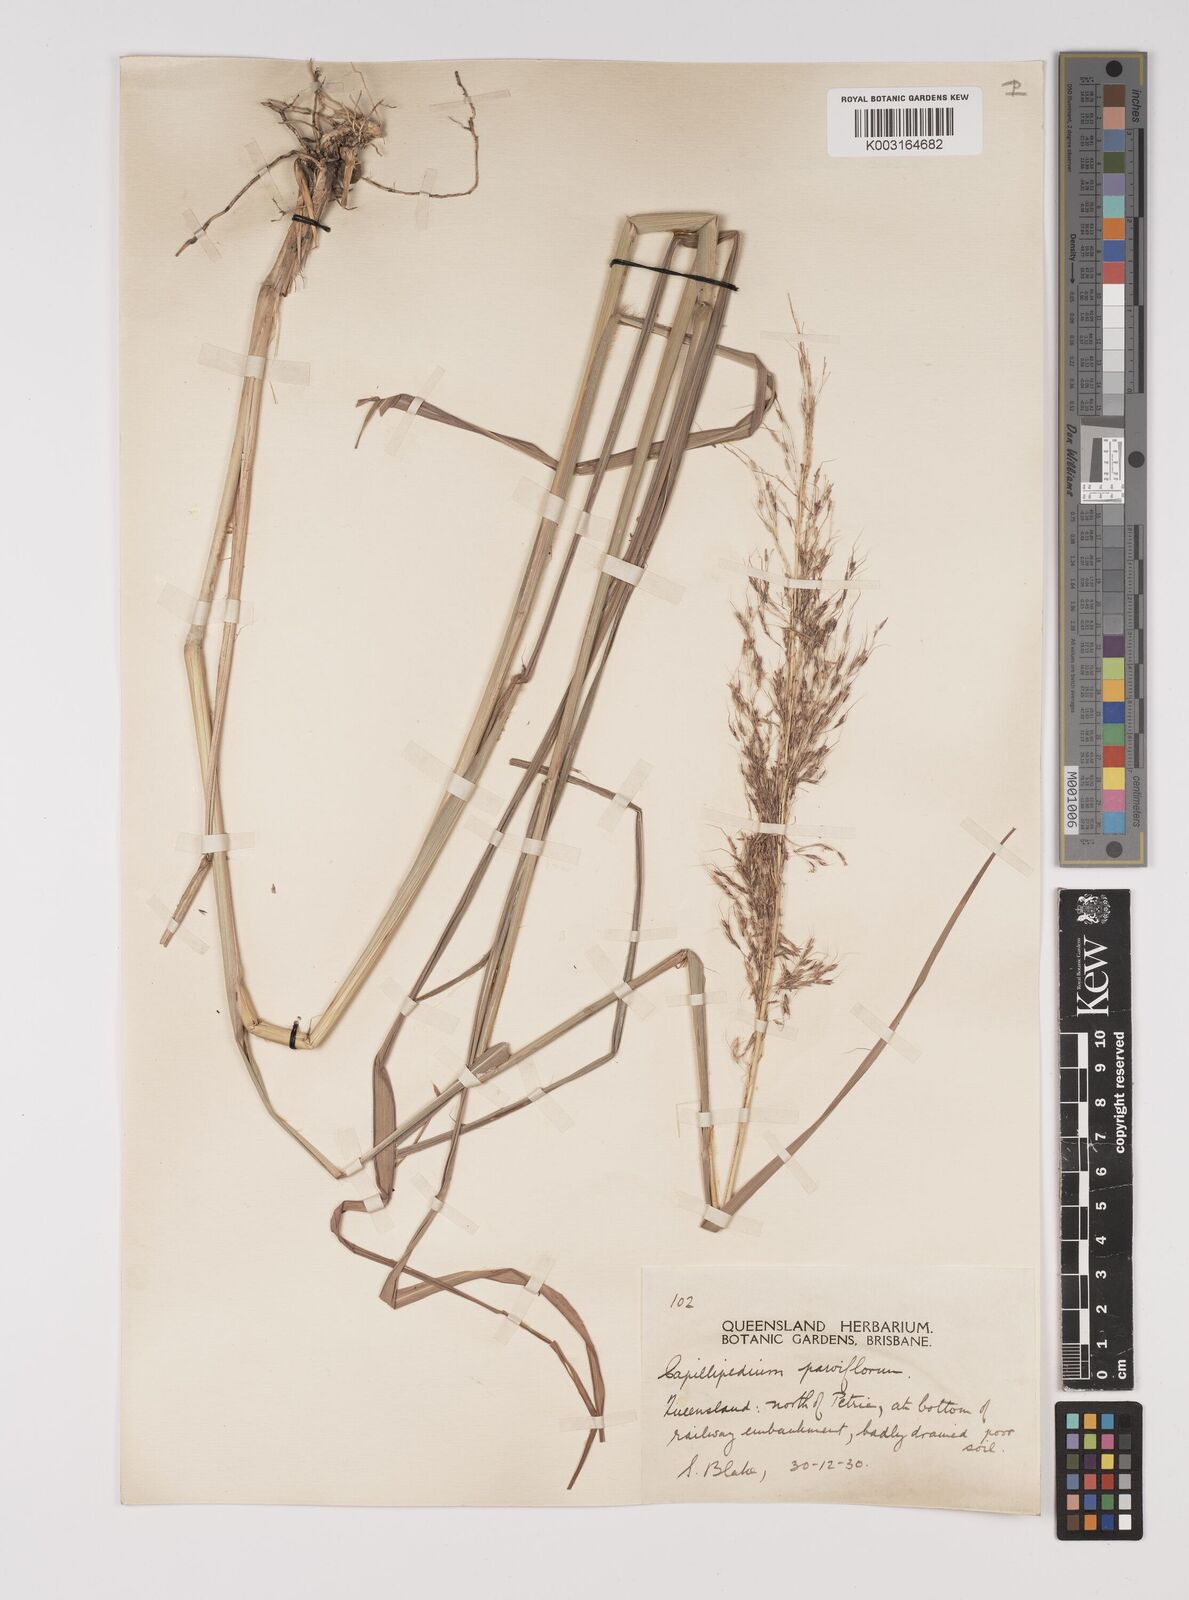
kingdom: Plantae
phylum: Tracheophyta
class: Liliopsida
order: Poales
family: Poaceae
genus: Capillipedium
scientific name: Capillipedium parviflorum
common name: Golden-beard
